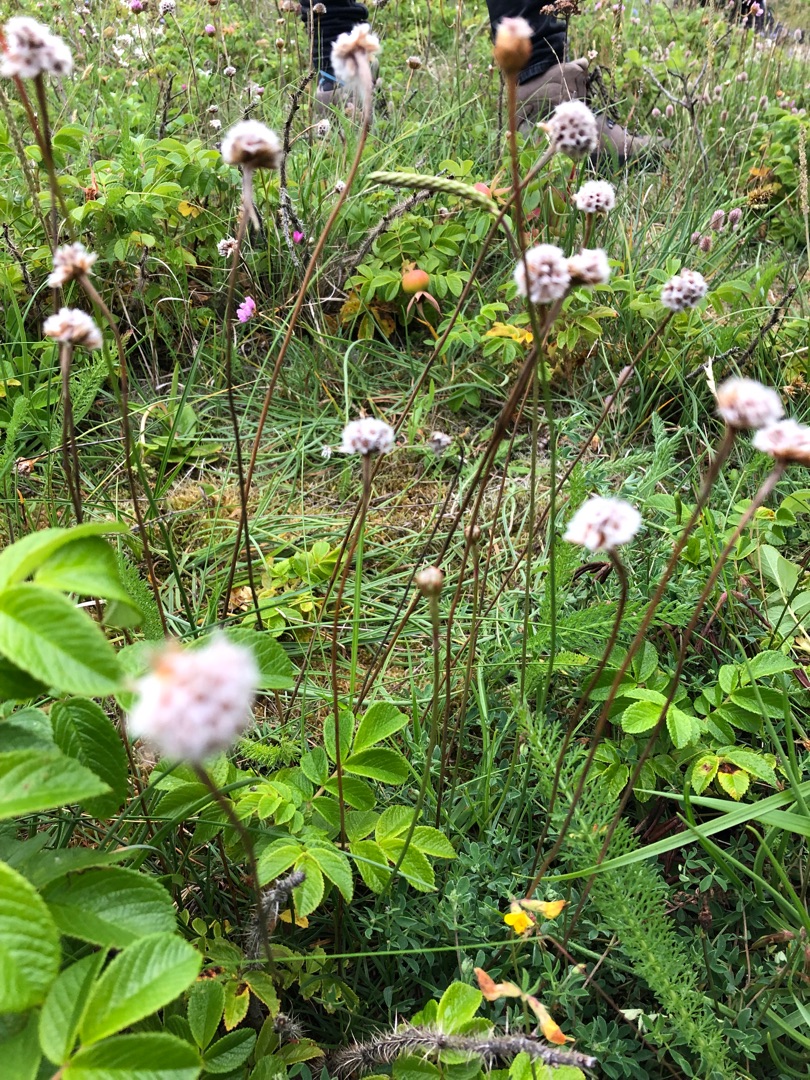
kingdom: Plantae
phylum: Tracheophyta
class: Magnoliopsida
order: Caryophyllales
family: Plumbaginaceae
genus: Armeria
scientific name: Armeria maritima
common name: Engelskgræs
